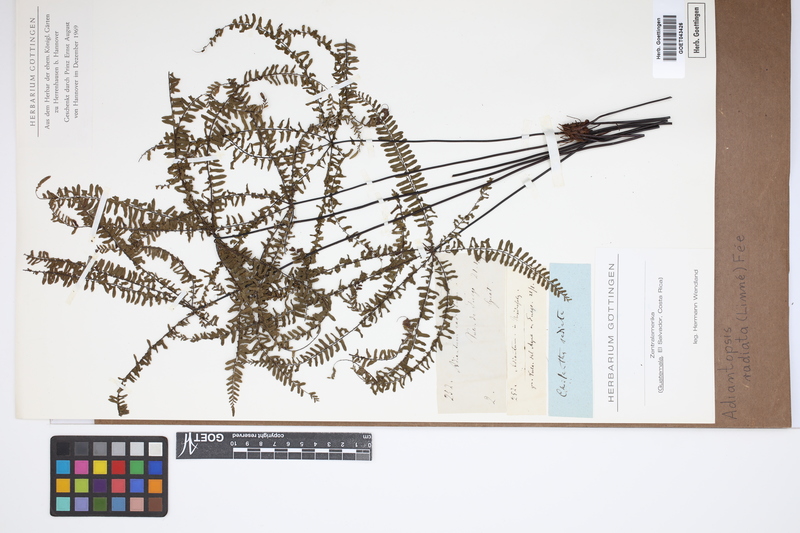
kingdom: Plantae
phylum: Tracheophyta
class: Polypodiopsida
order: Polypodiales
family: Pteridaceae
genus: Adiantopsis
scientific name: Adiantopsis radiata
